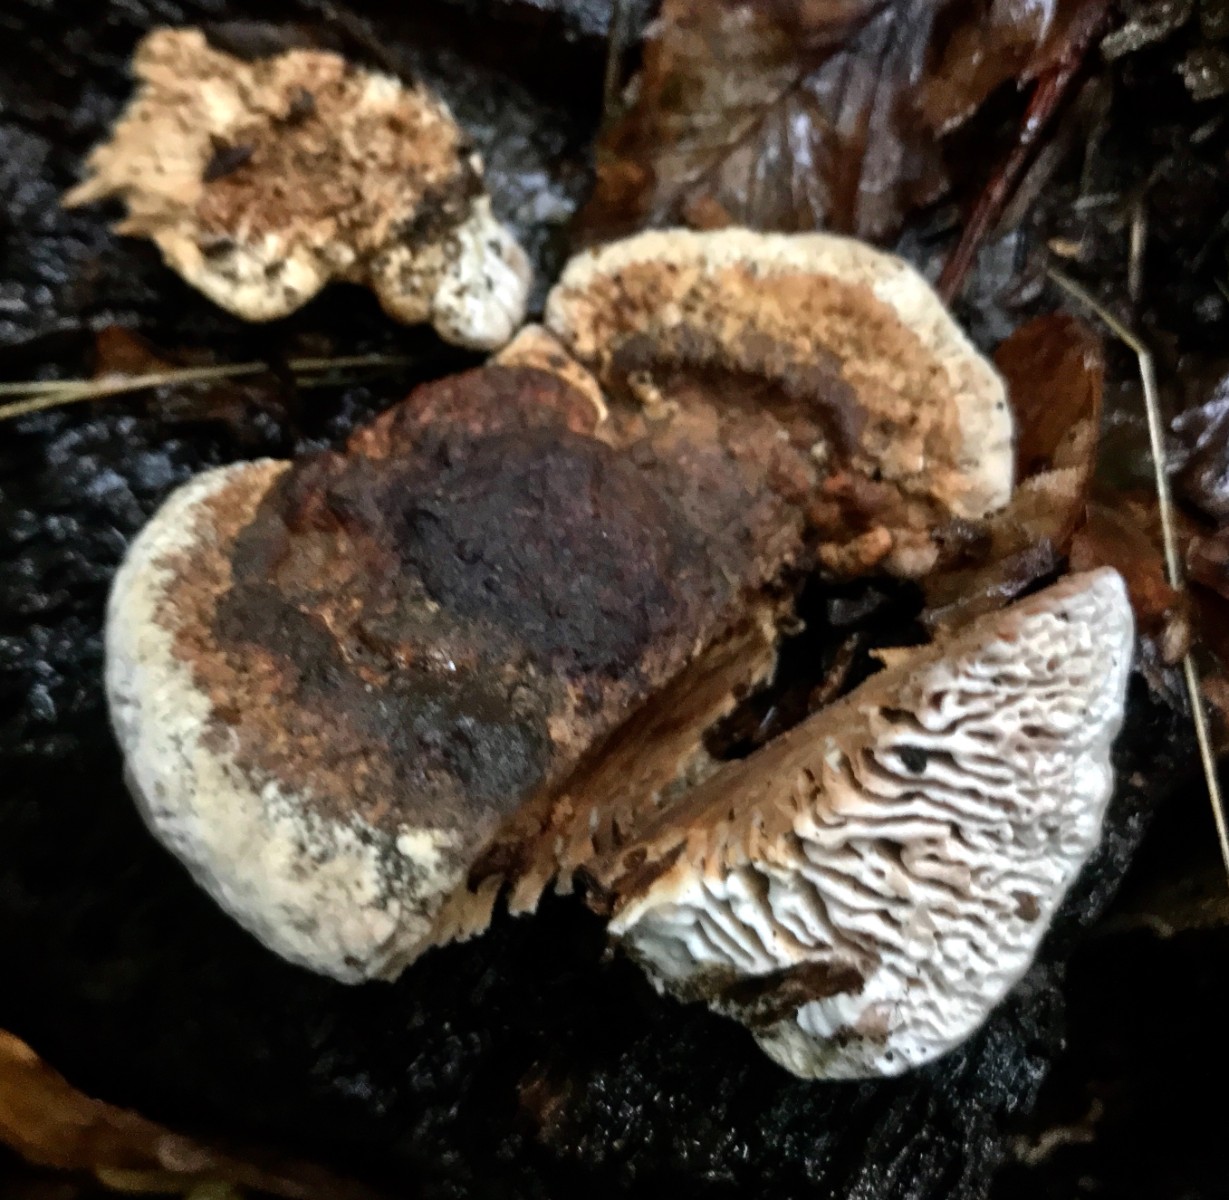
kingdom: Fungi
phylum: Basidiomycota
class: Agaricomycetes
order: Polyporales
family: Polyporaceae
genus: Lenzites
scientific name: Lenzites betulinus
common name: birke-læderporesvamp
